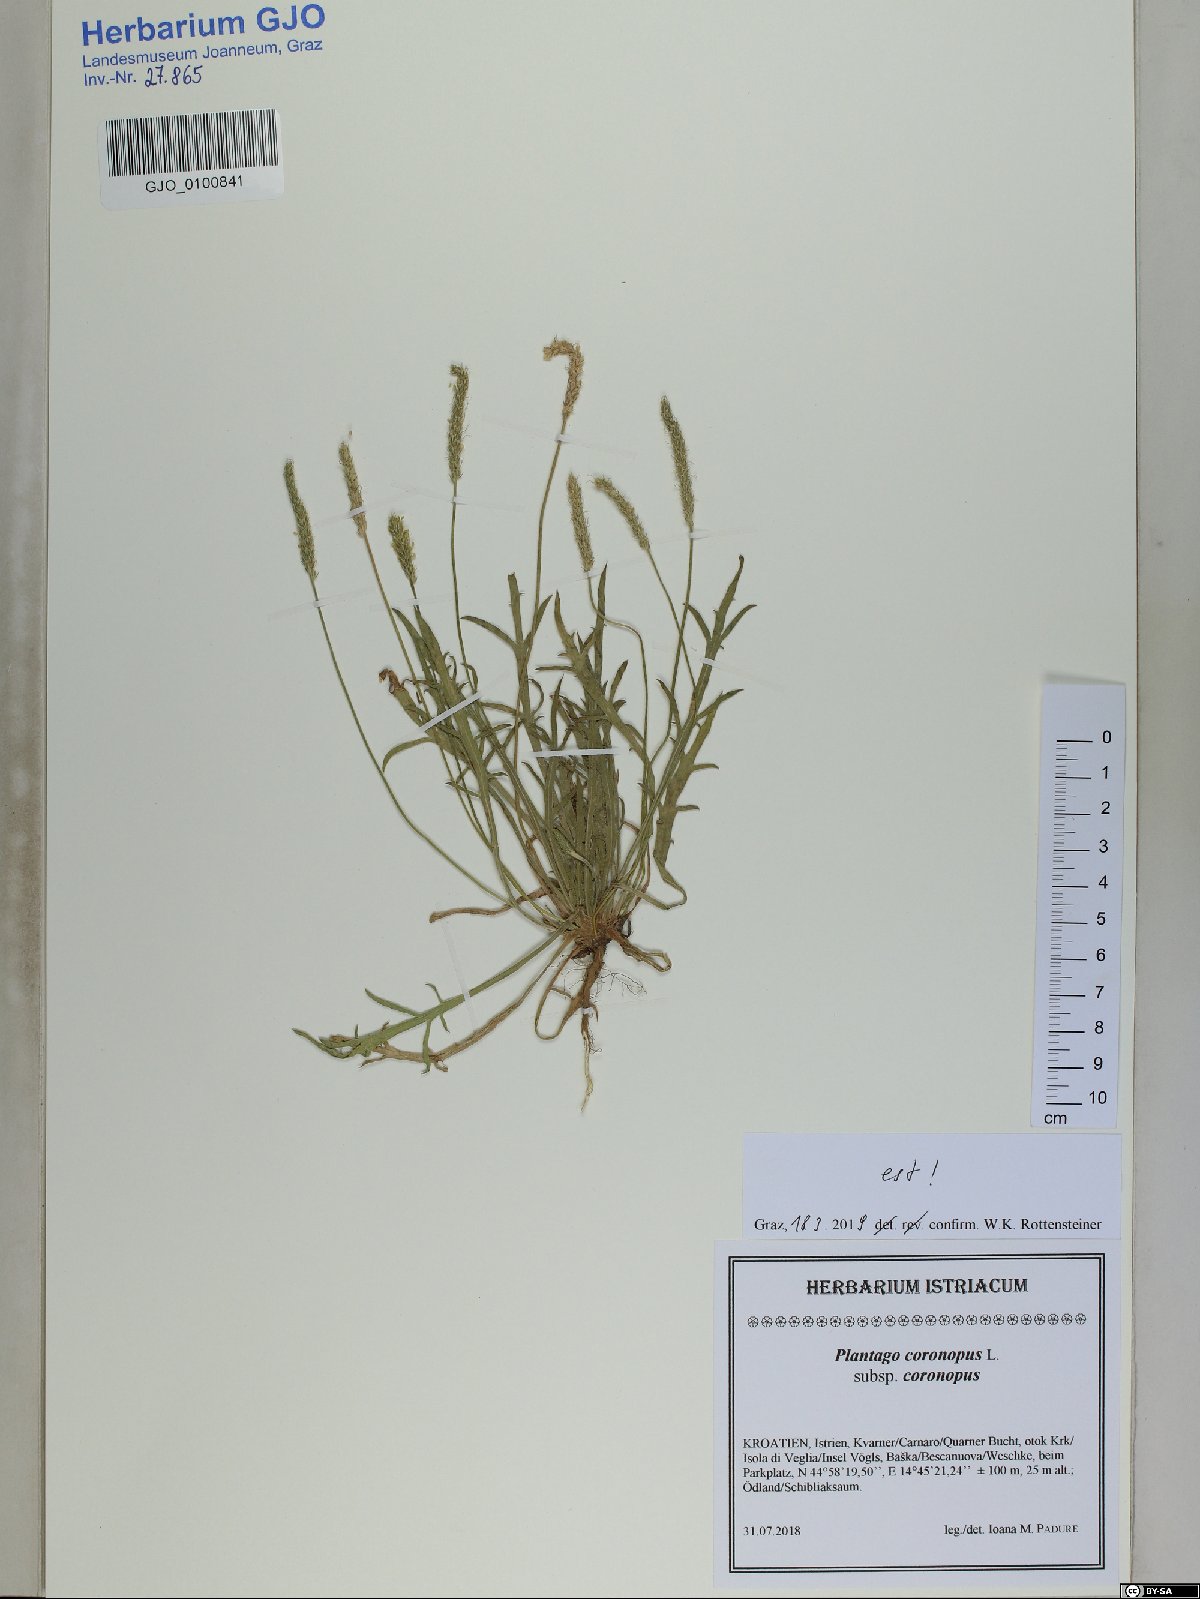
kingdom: Plantae
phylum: Tracheophyta
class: Magnoliopsida
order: Lamiales
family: Plantaginaceae
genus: Plantago
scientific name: Plantago coronopus
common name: Buck's-horn plantain
